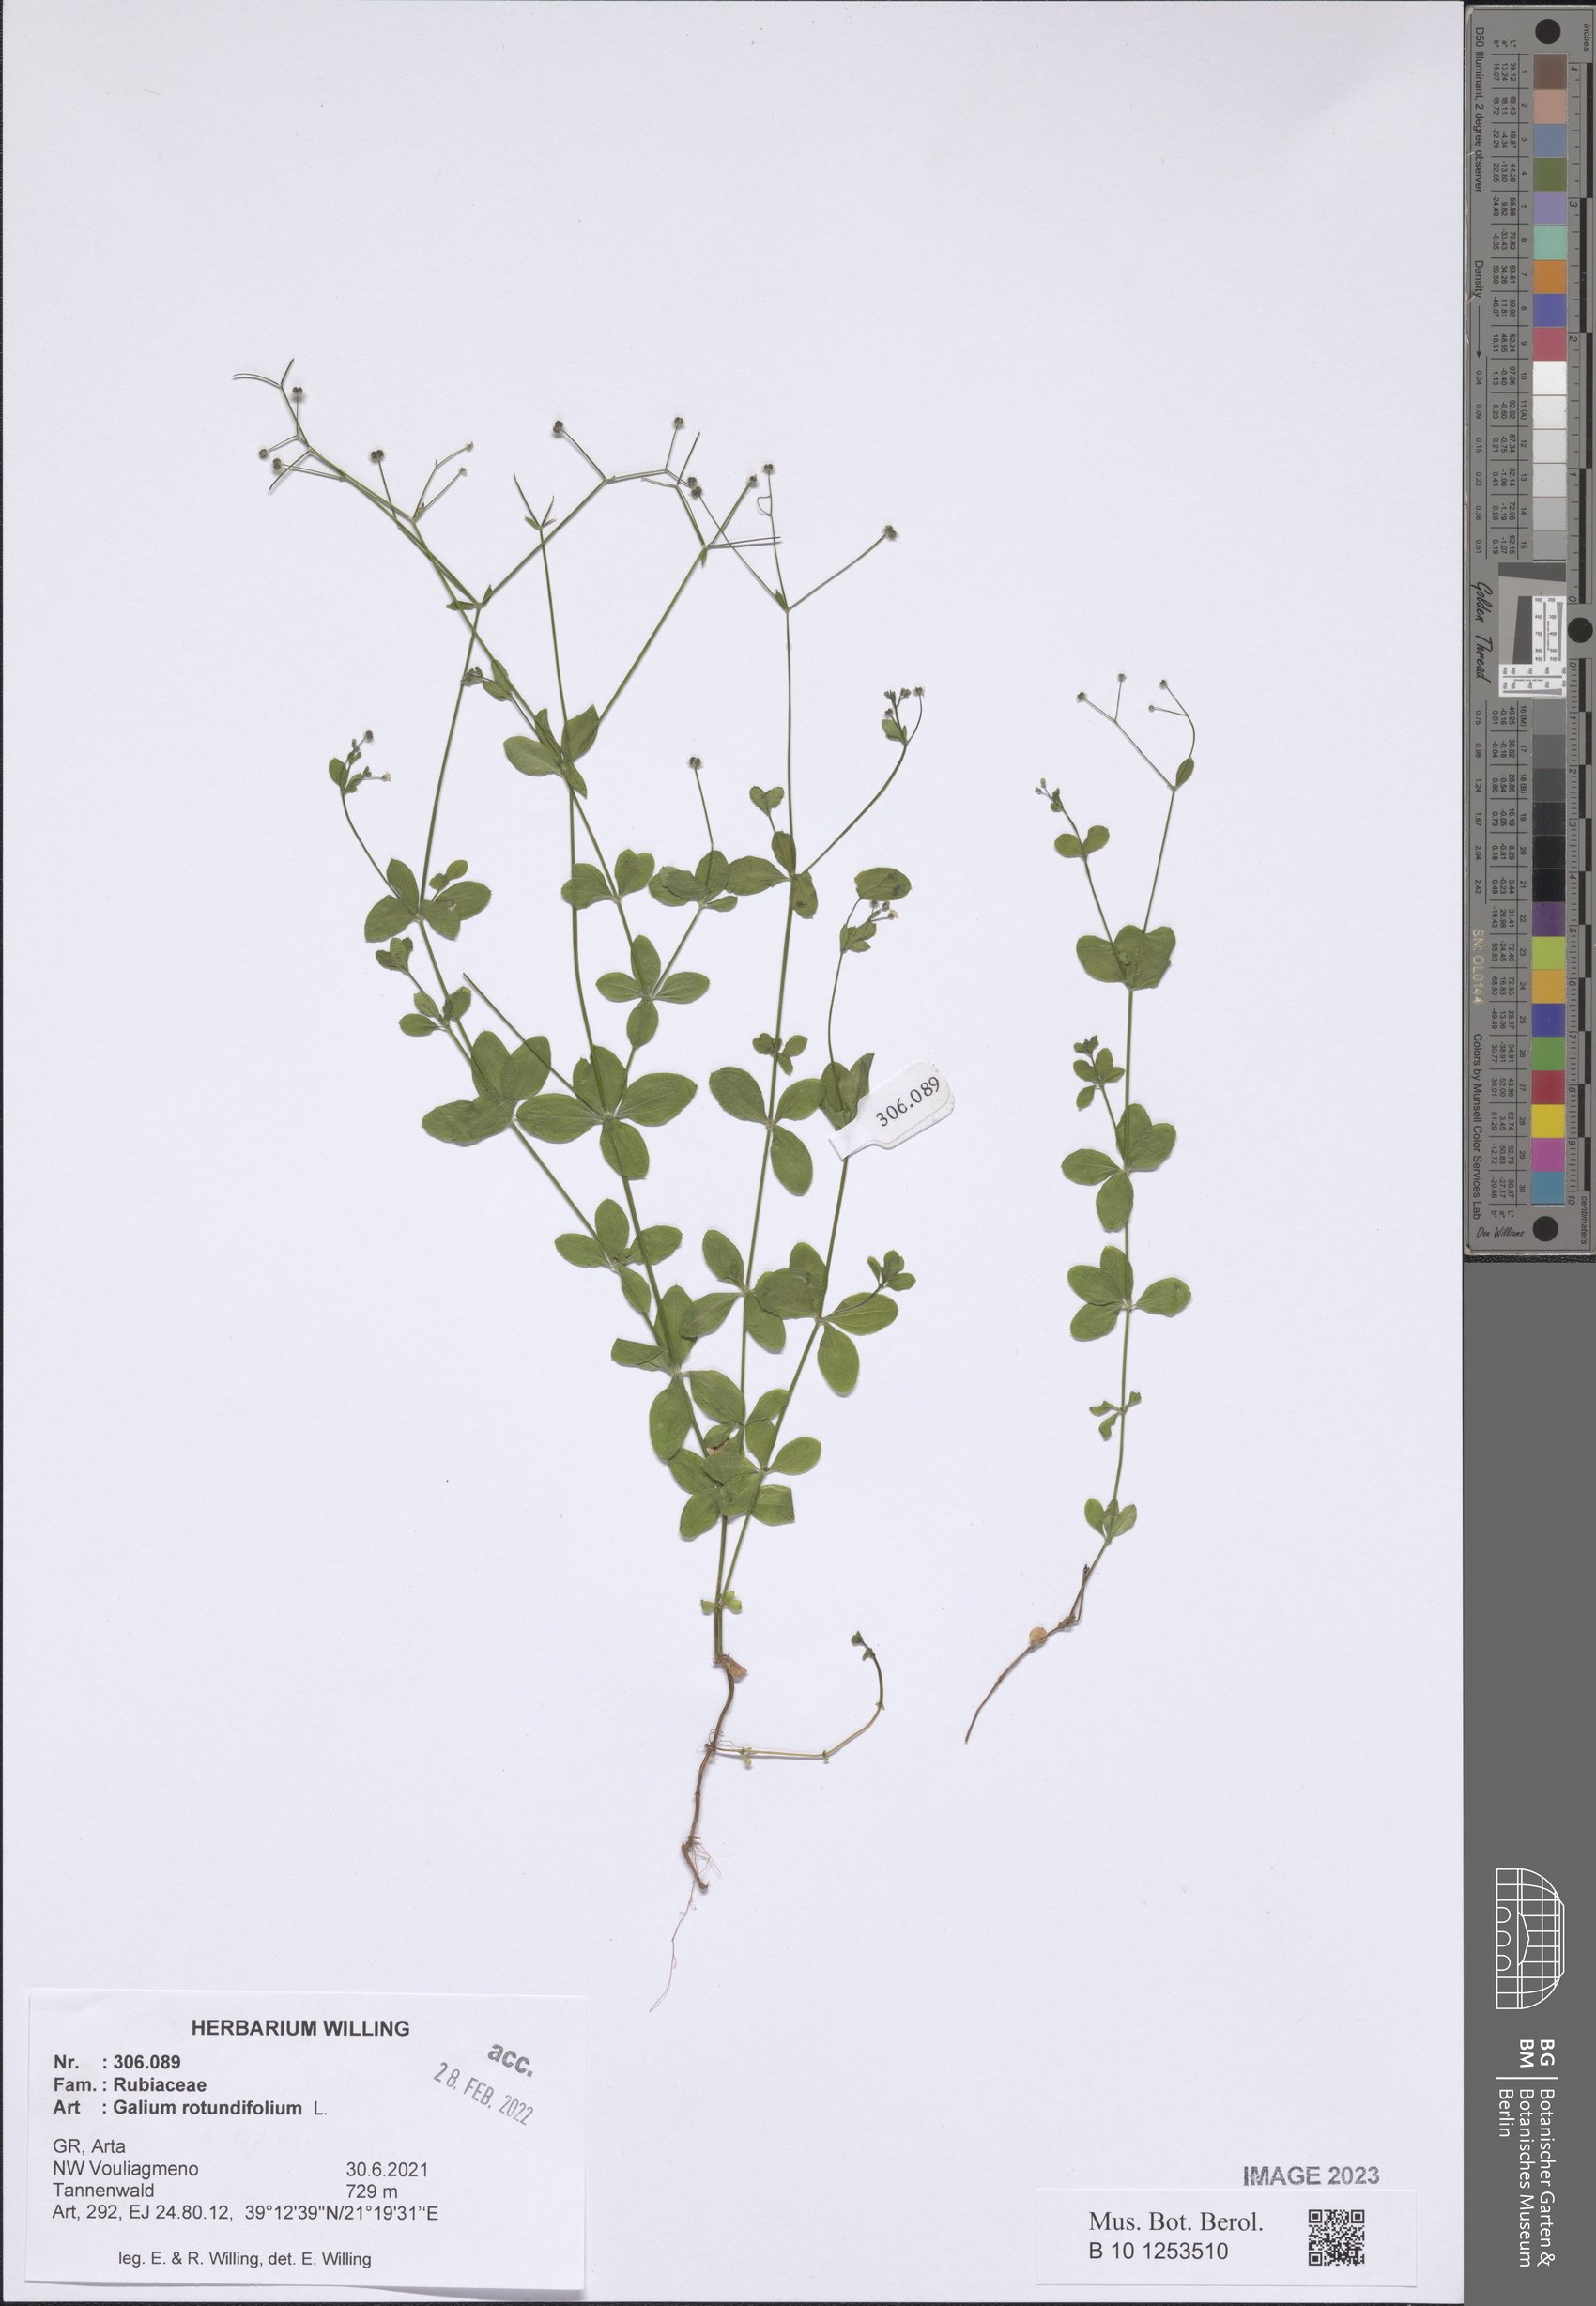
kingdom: Plantae
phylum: Tracheophyta
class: Magnoliopsida
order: Gentianales
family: Rubiaceae
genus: Galium
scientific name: Galium rotundifolium
